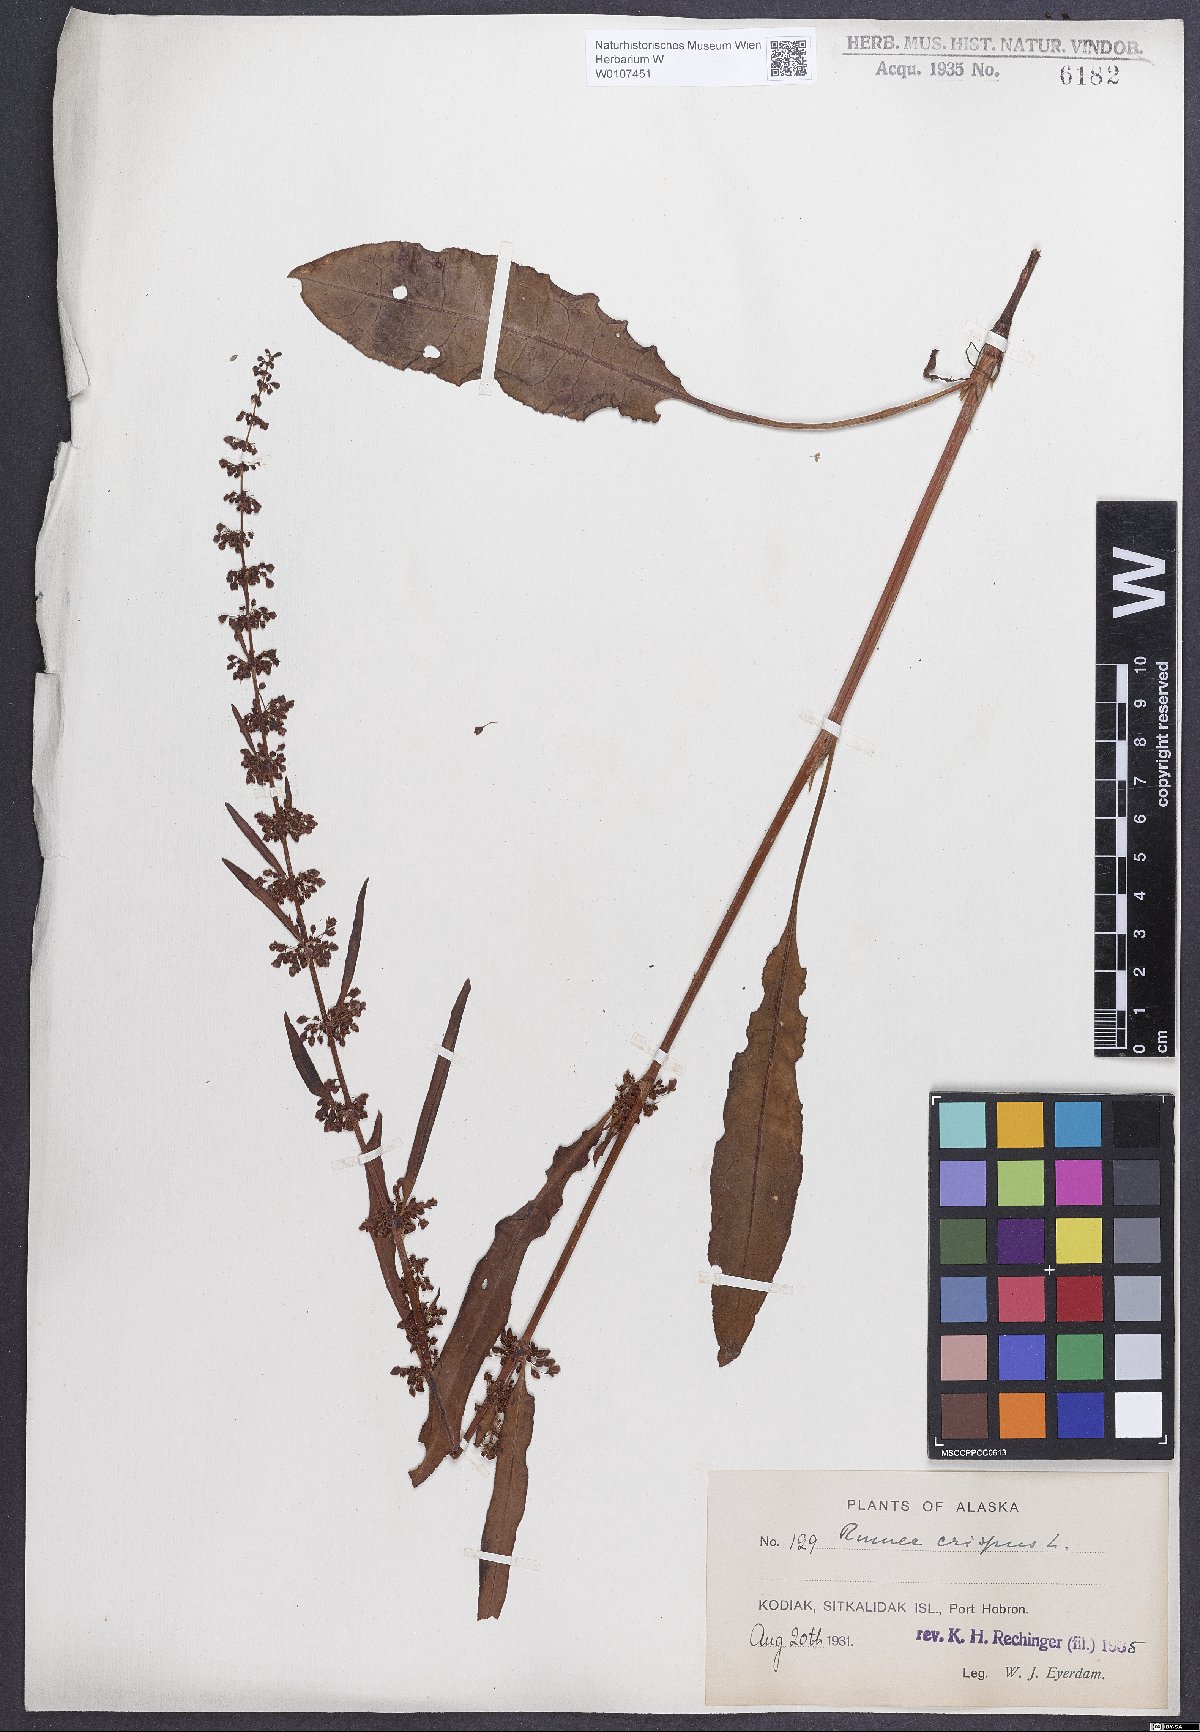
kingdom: Plantae
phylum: Tracheophyta
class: Magnoliopsida
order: Caryophyllales
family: Polygonaceae
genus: Rumex
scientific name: Rumex crispus
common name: Curled dock
